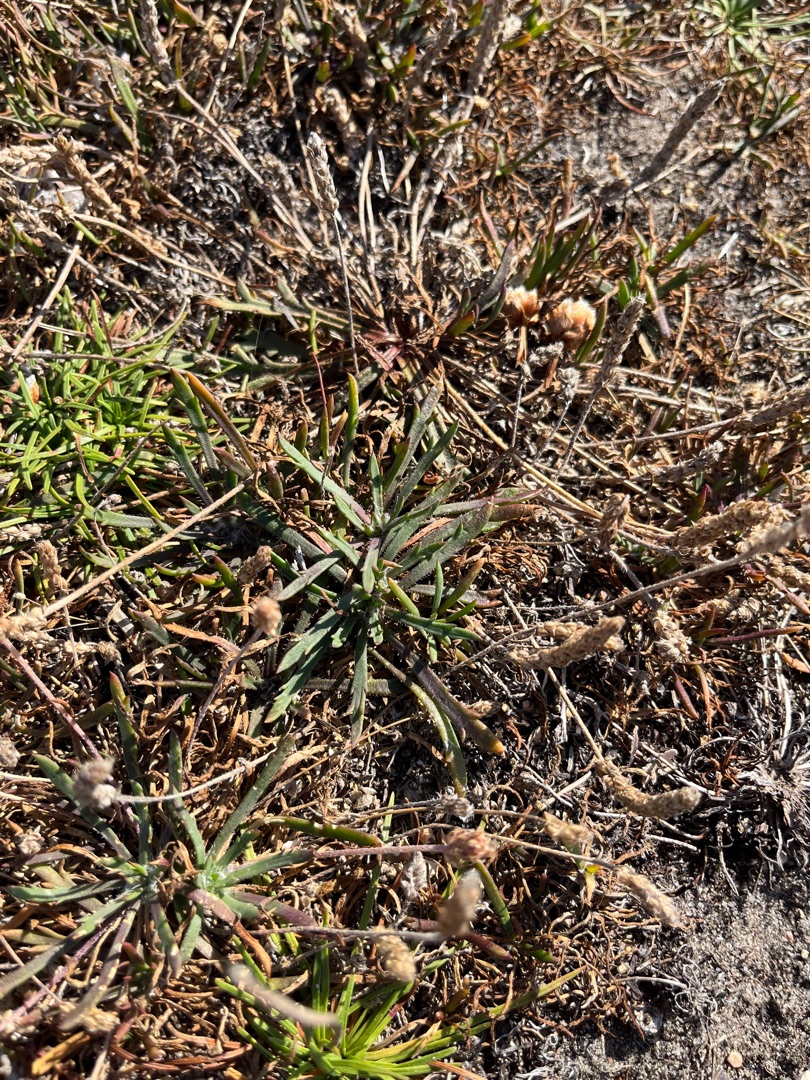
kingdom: Plantae
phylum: Tracheophyta
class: Magnoliopsida
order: Lamiales
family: Plantaginaceae
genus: Plantago
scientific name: Plantago coronopus
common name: Fliget vejbred
